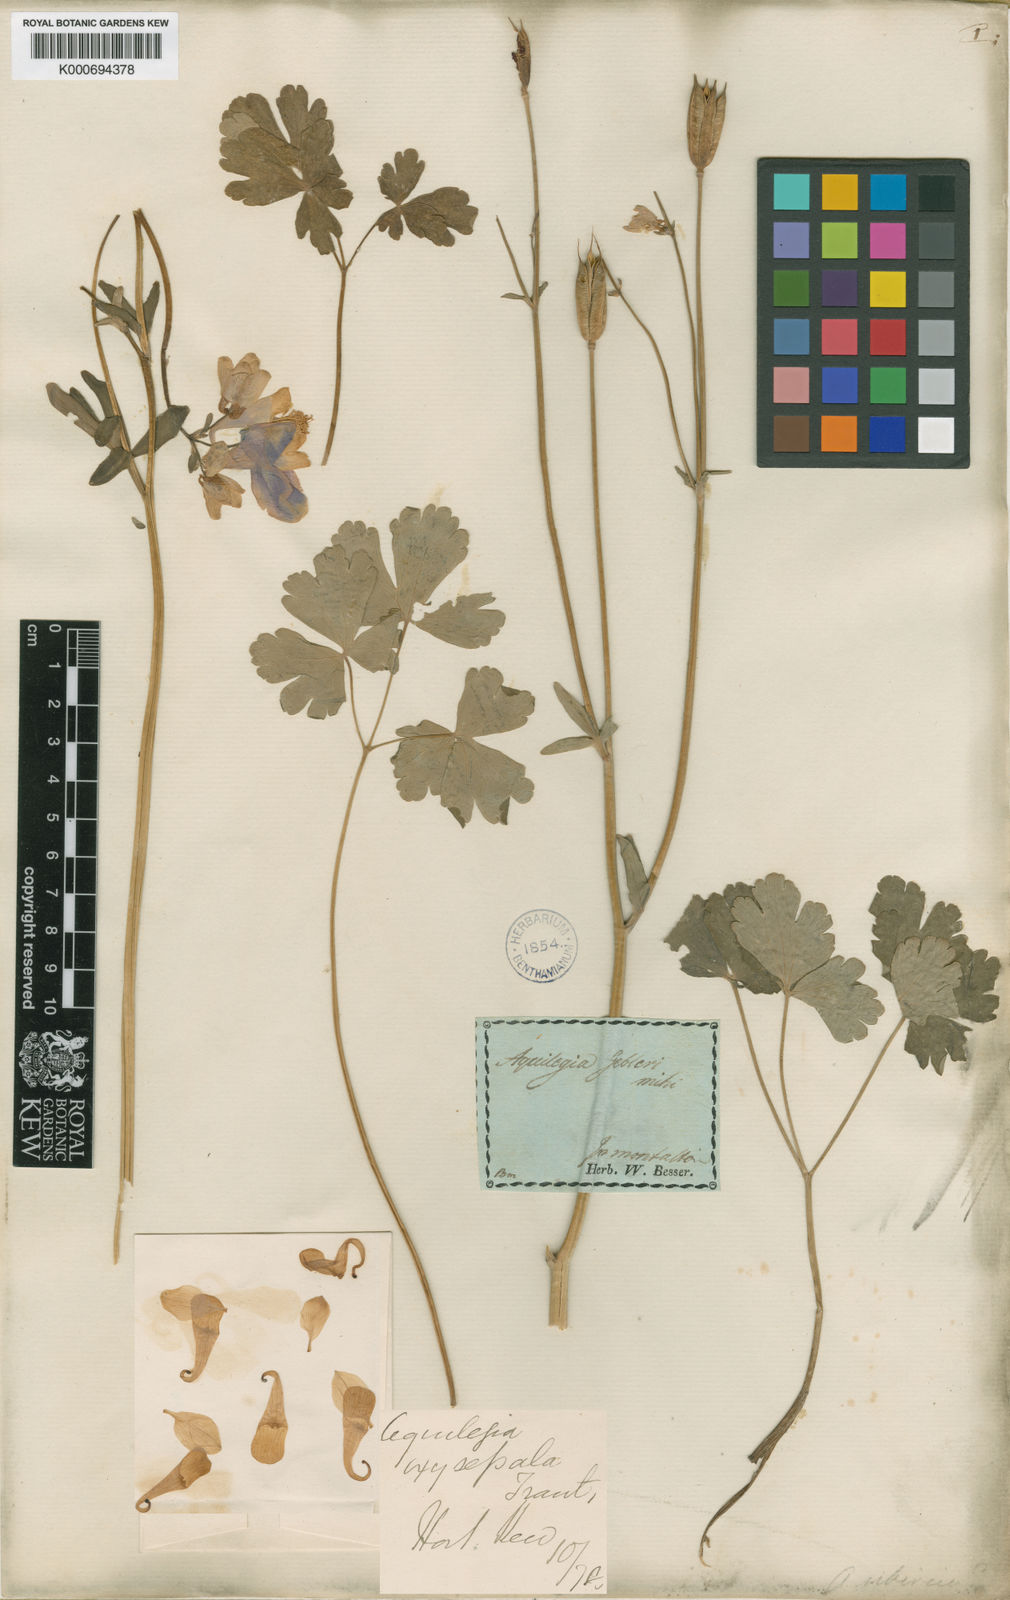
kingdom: Plantae
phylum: Tracheophyta
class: Magnoliopsida
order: Ranunculales
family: Ranunculaceae
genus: Aquilegia
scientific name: Aquilegia
